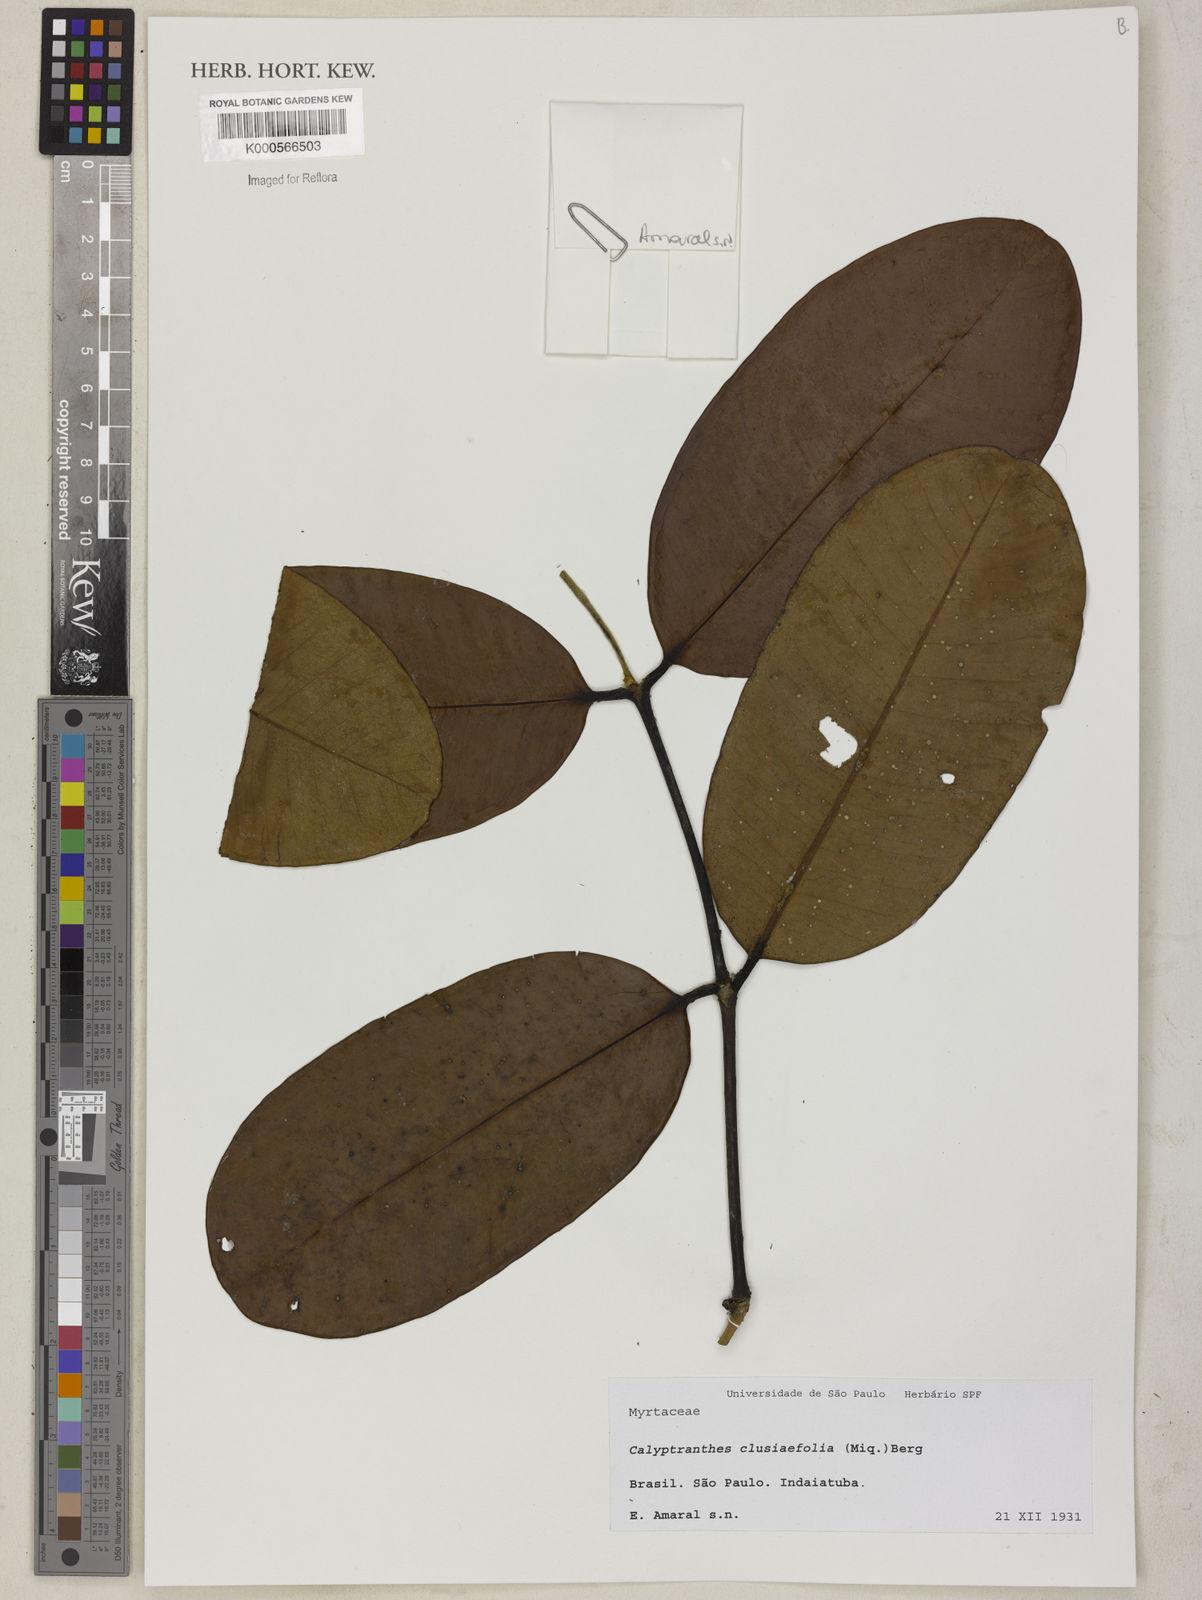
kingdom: Plantae
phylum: Tracheophyta
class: Magnoliopsida
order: Myrtales
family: Myrtaceae
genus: Myrcia
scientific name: Myrcia neoclusiifolia
